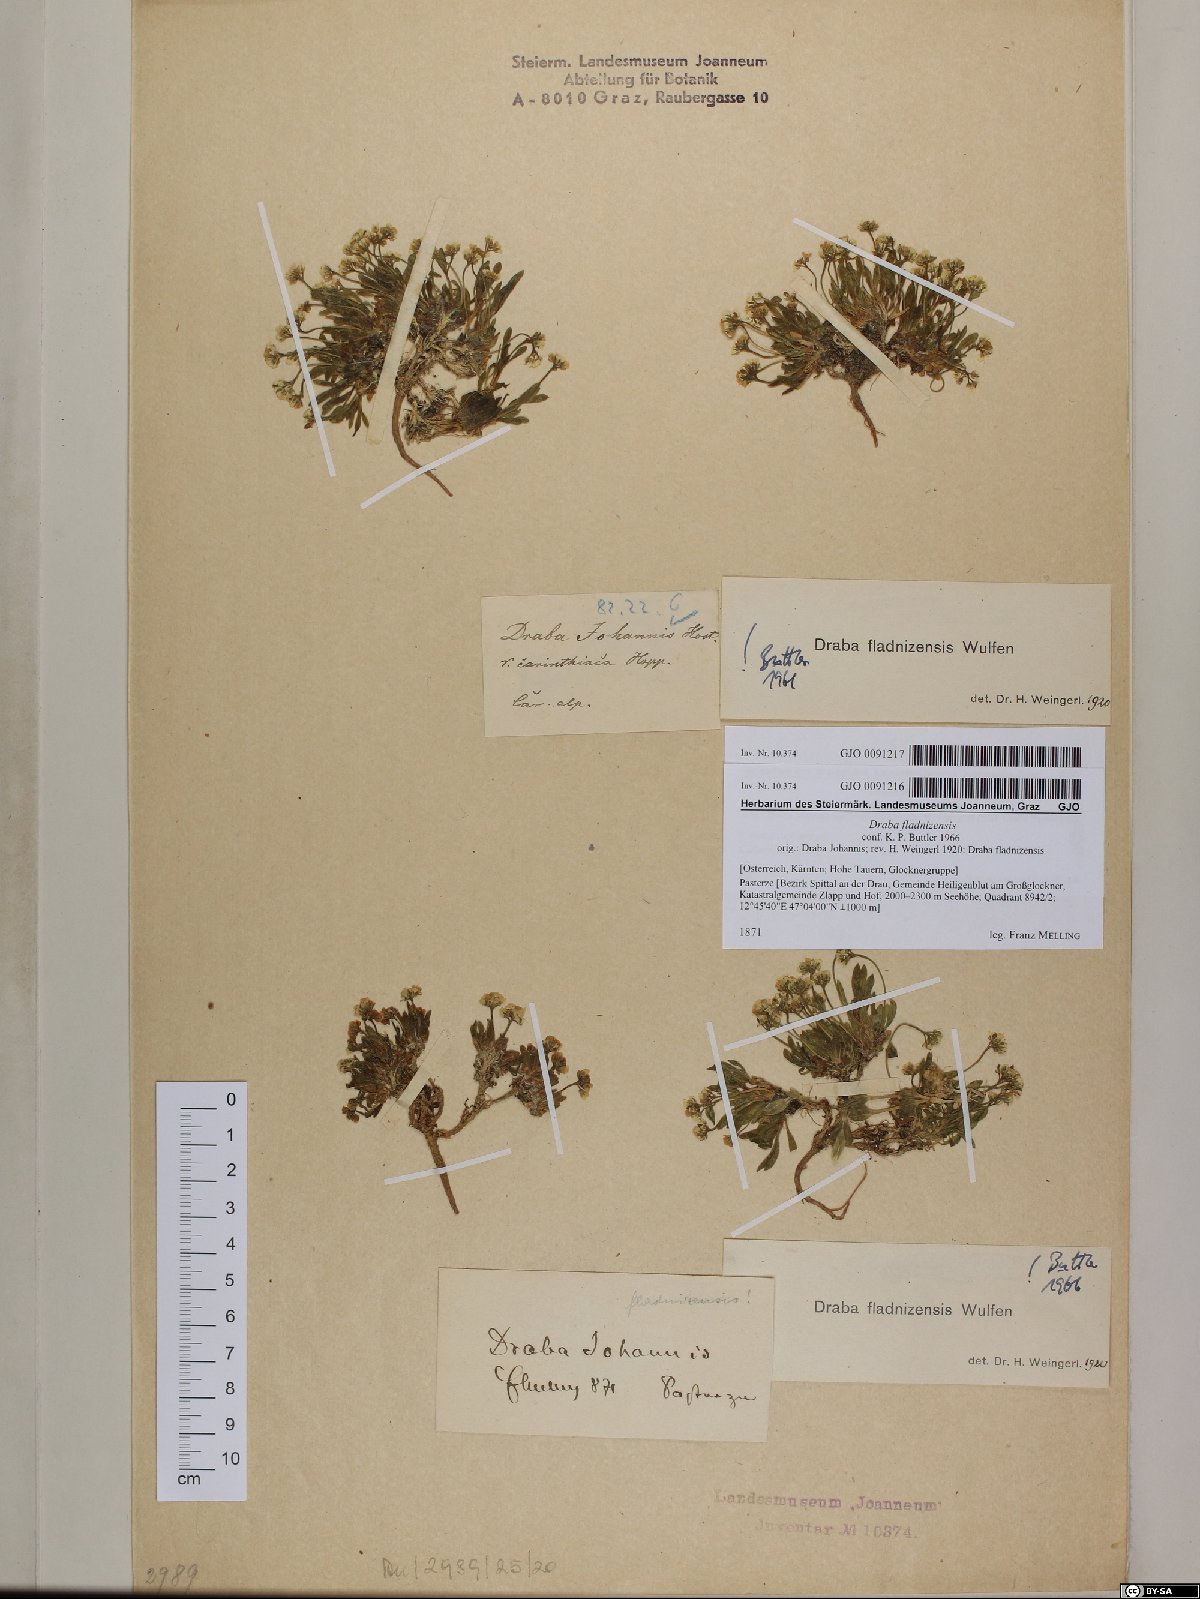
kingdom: Plantae
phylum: Tracheophyta
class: Magnoliopsida
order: Brassicales
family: Brassicaceae
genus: Draba
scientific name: Draba fladnizensis
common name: Austrian draba
